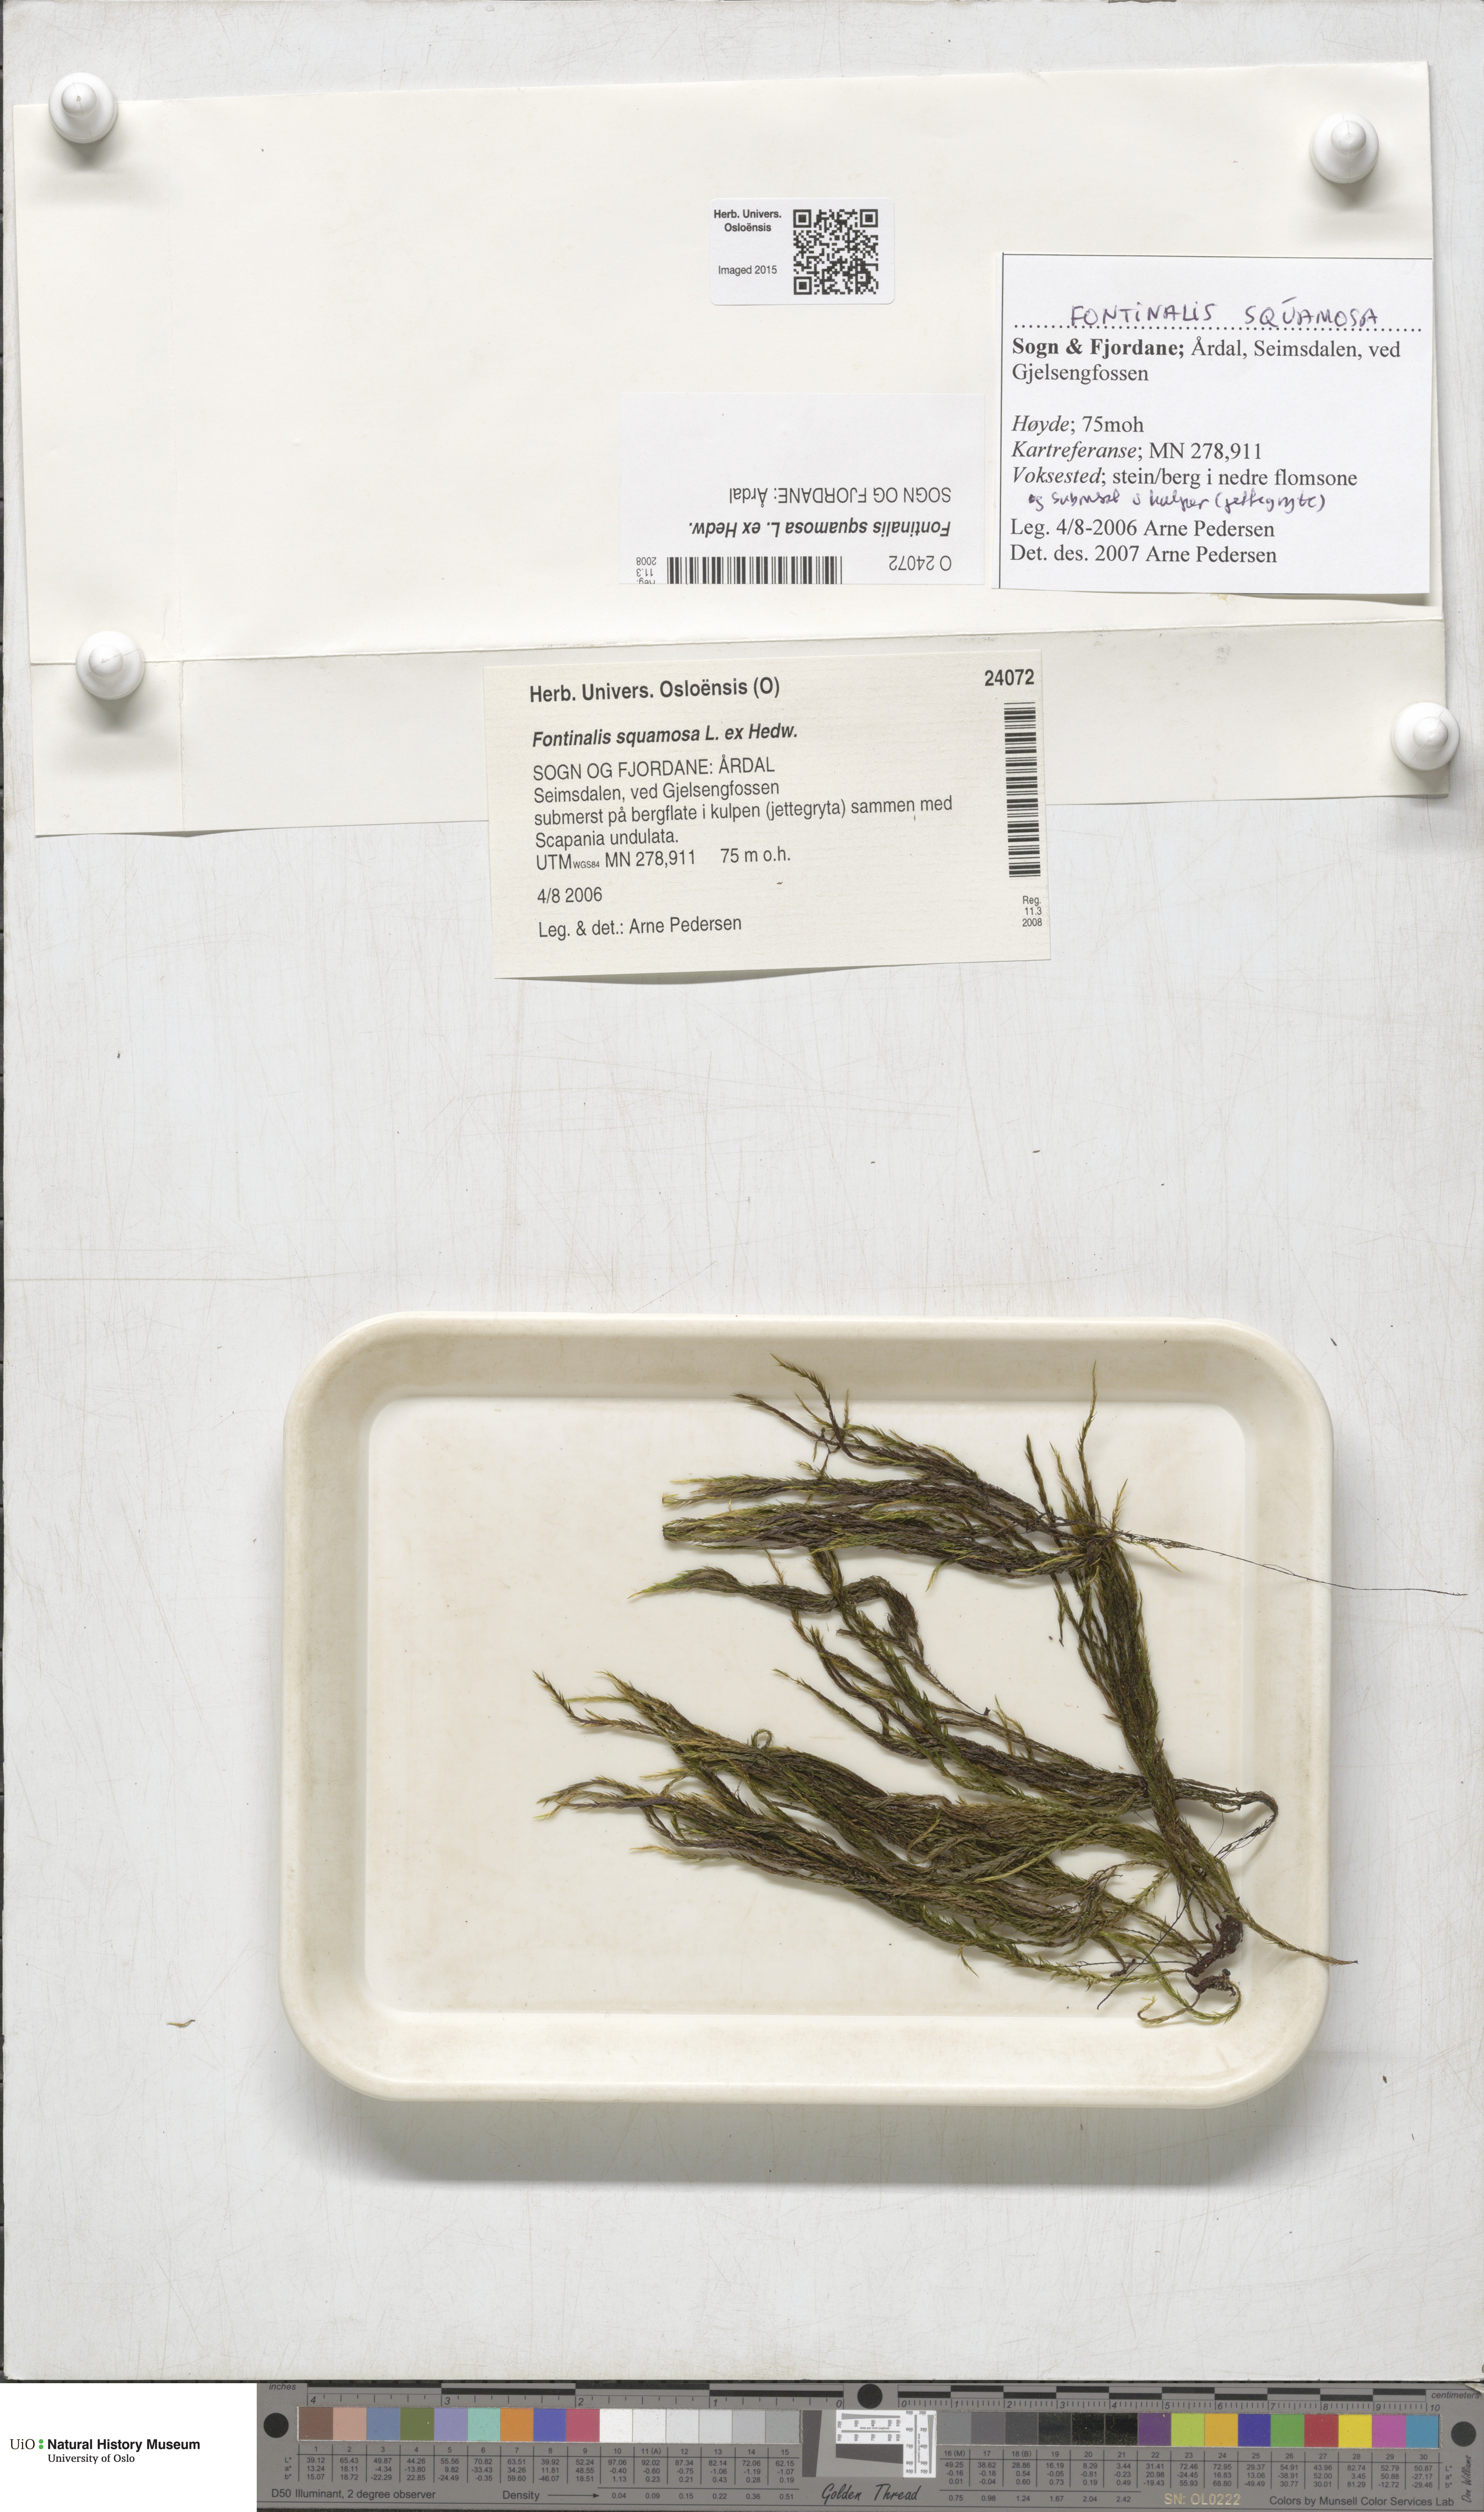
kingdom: Plantae
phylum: Bryophyta
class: Bryopsida
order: Hypnales
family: Fontinalaceae
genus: Fontinalis
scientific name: Fontinalis squamosa
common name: Alpine water-moss
